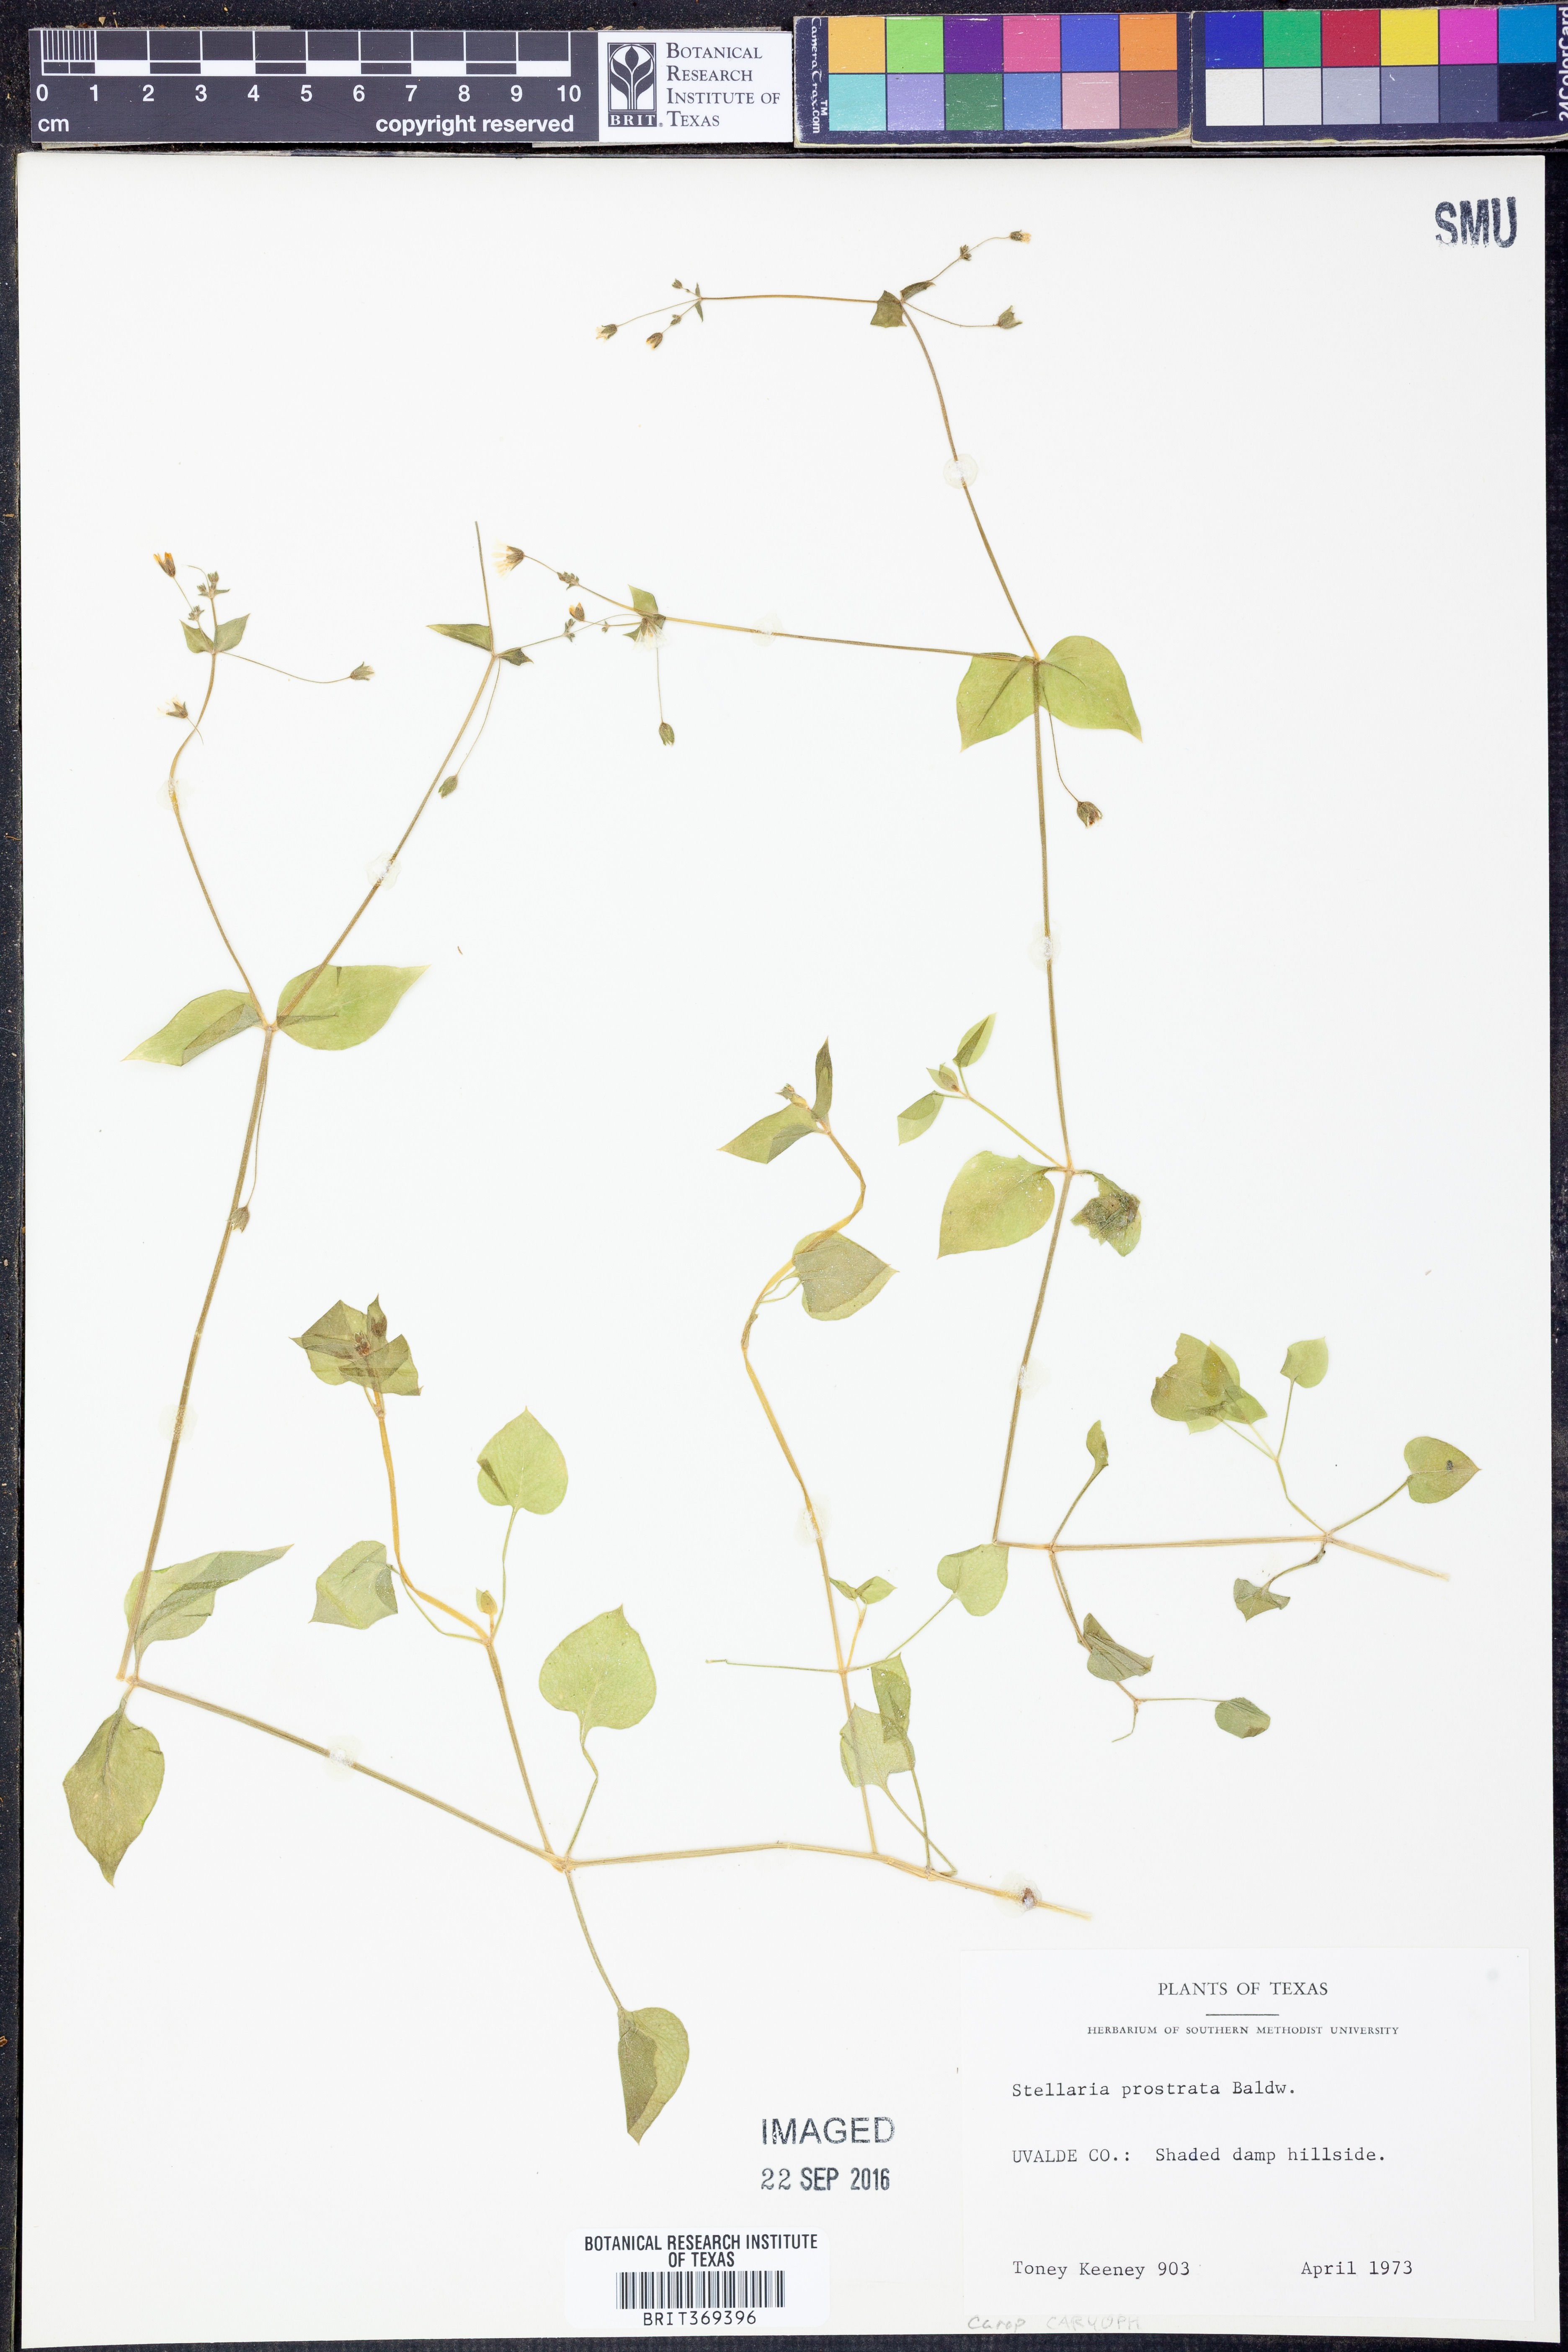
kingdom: Plantae
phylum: Tracheophyta
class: Magnoliopsida
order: Caryophyllales
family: Caryophyllaceae
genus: Stellaria
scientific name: Stellaria cuspidata
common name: Mexican chickweed
